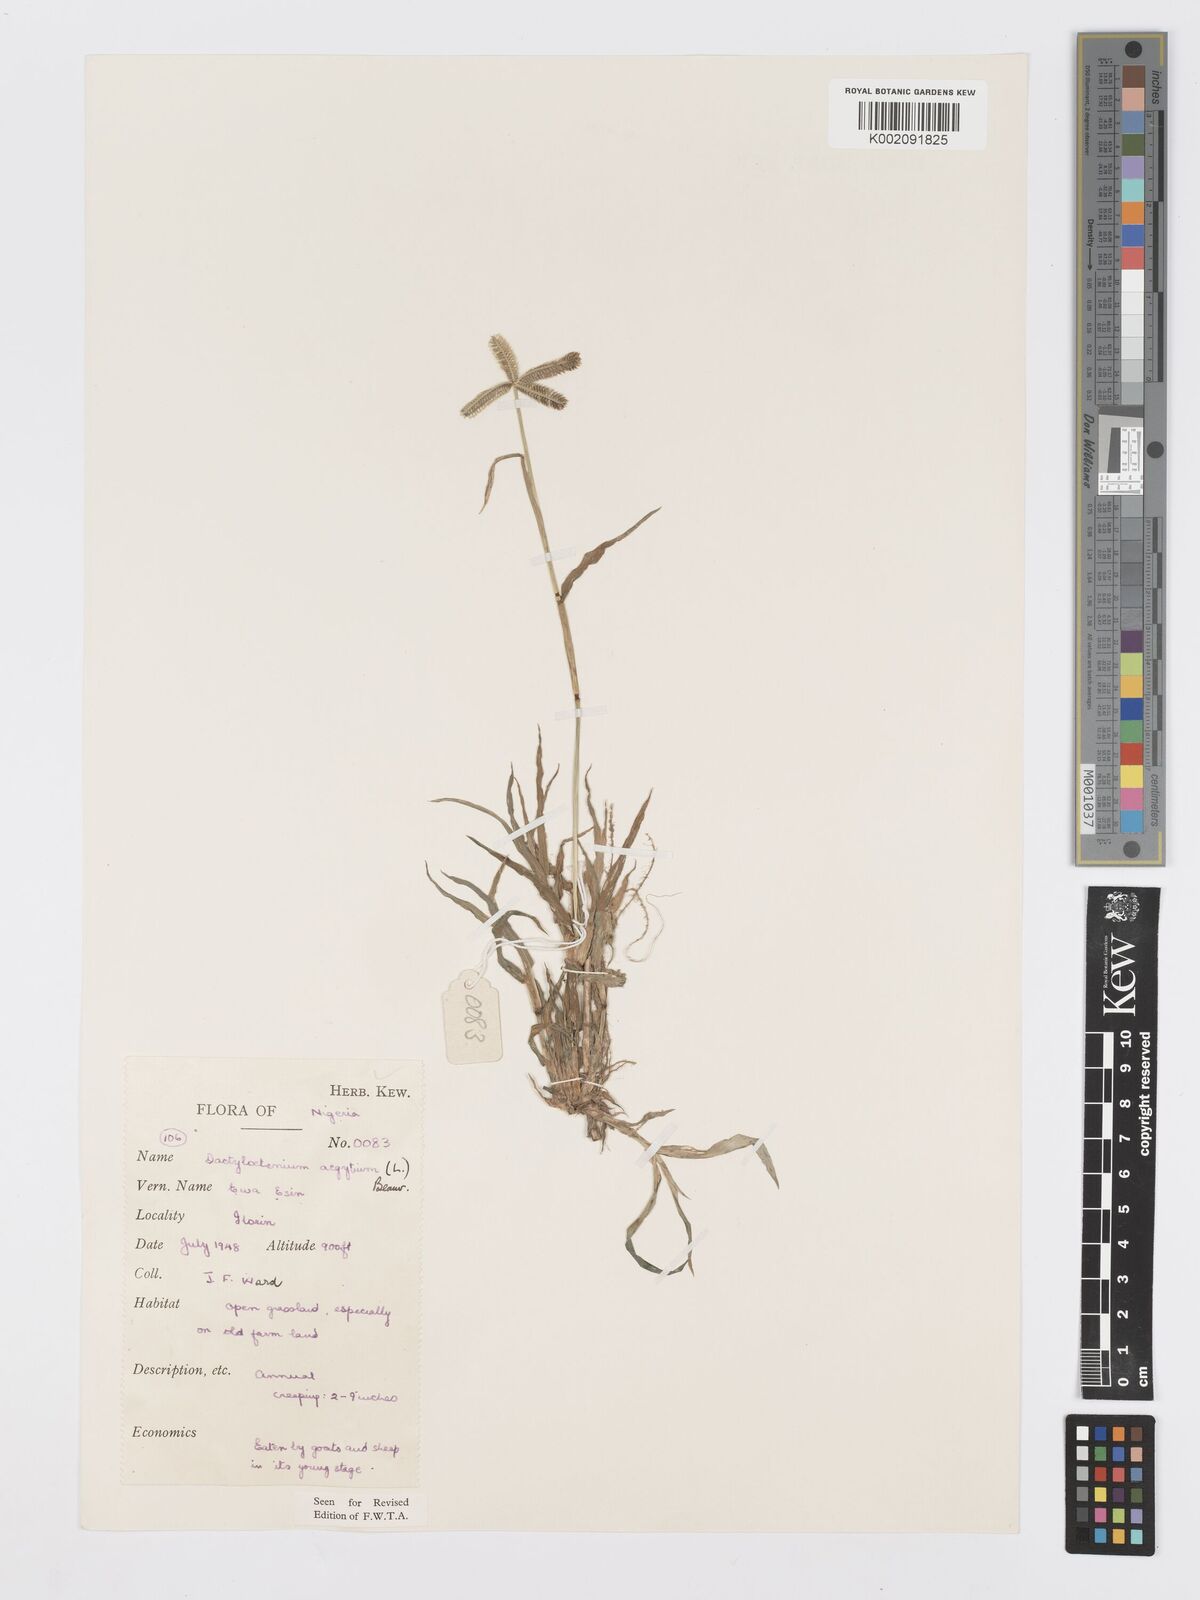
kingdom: Plantae
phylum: Tracheophyta
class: Liliopsida
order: Poales
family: Poaceae
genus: Dactyloctenium
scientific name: Dactyloctenium aegyptium
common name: Egyptian grass
